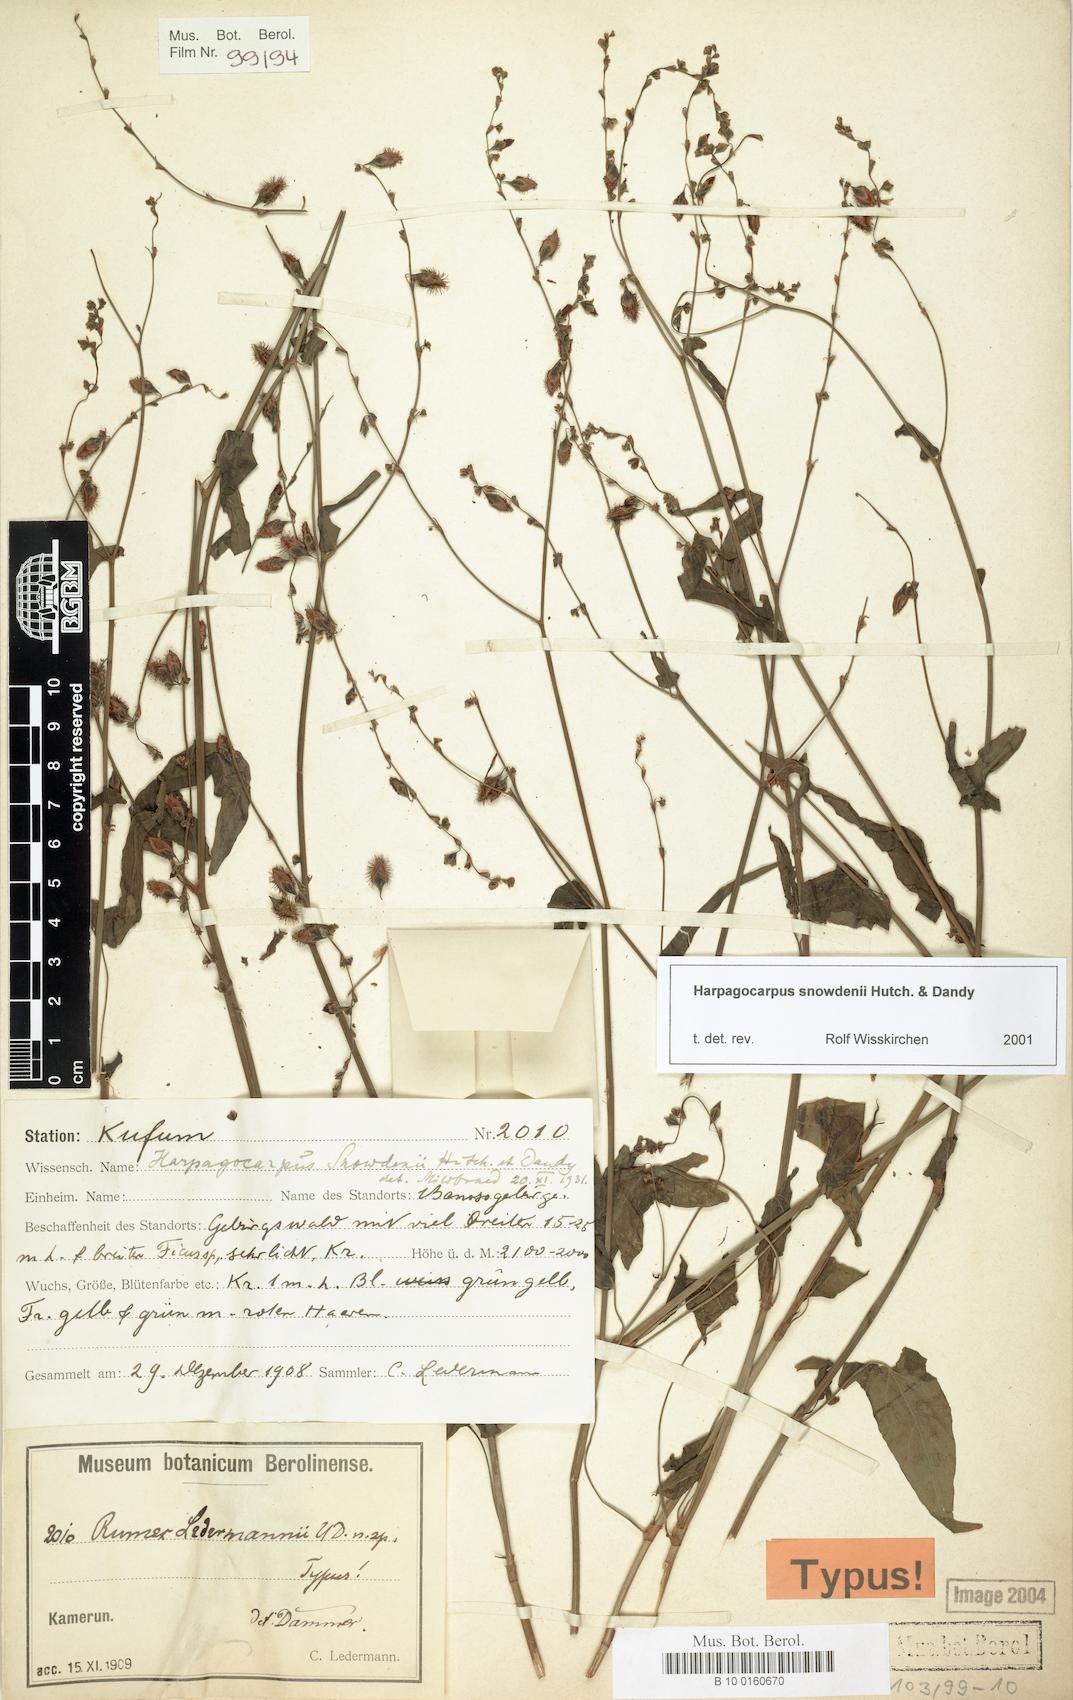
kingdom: Plantae
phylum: Tracheophyta
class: Magnoliopsida
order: Caryophyllales
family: Polygonaceae
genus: Harpagocarpus
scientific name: Harpagocarpus snowdenii
